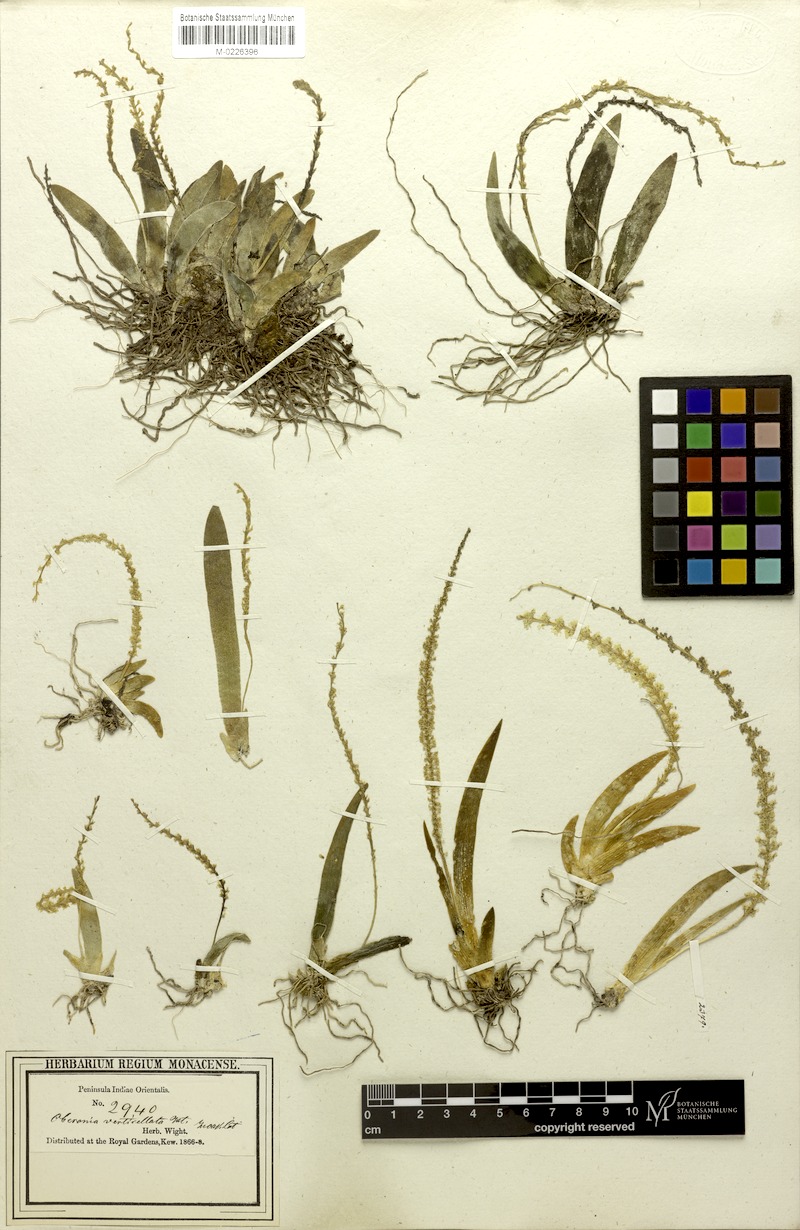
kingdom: Plantae
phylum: Tracheophyta
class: Liliopsida
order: Asparagales
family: Orchidaceae
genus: Oberonia
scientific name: Oberonia verticillata
